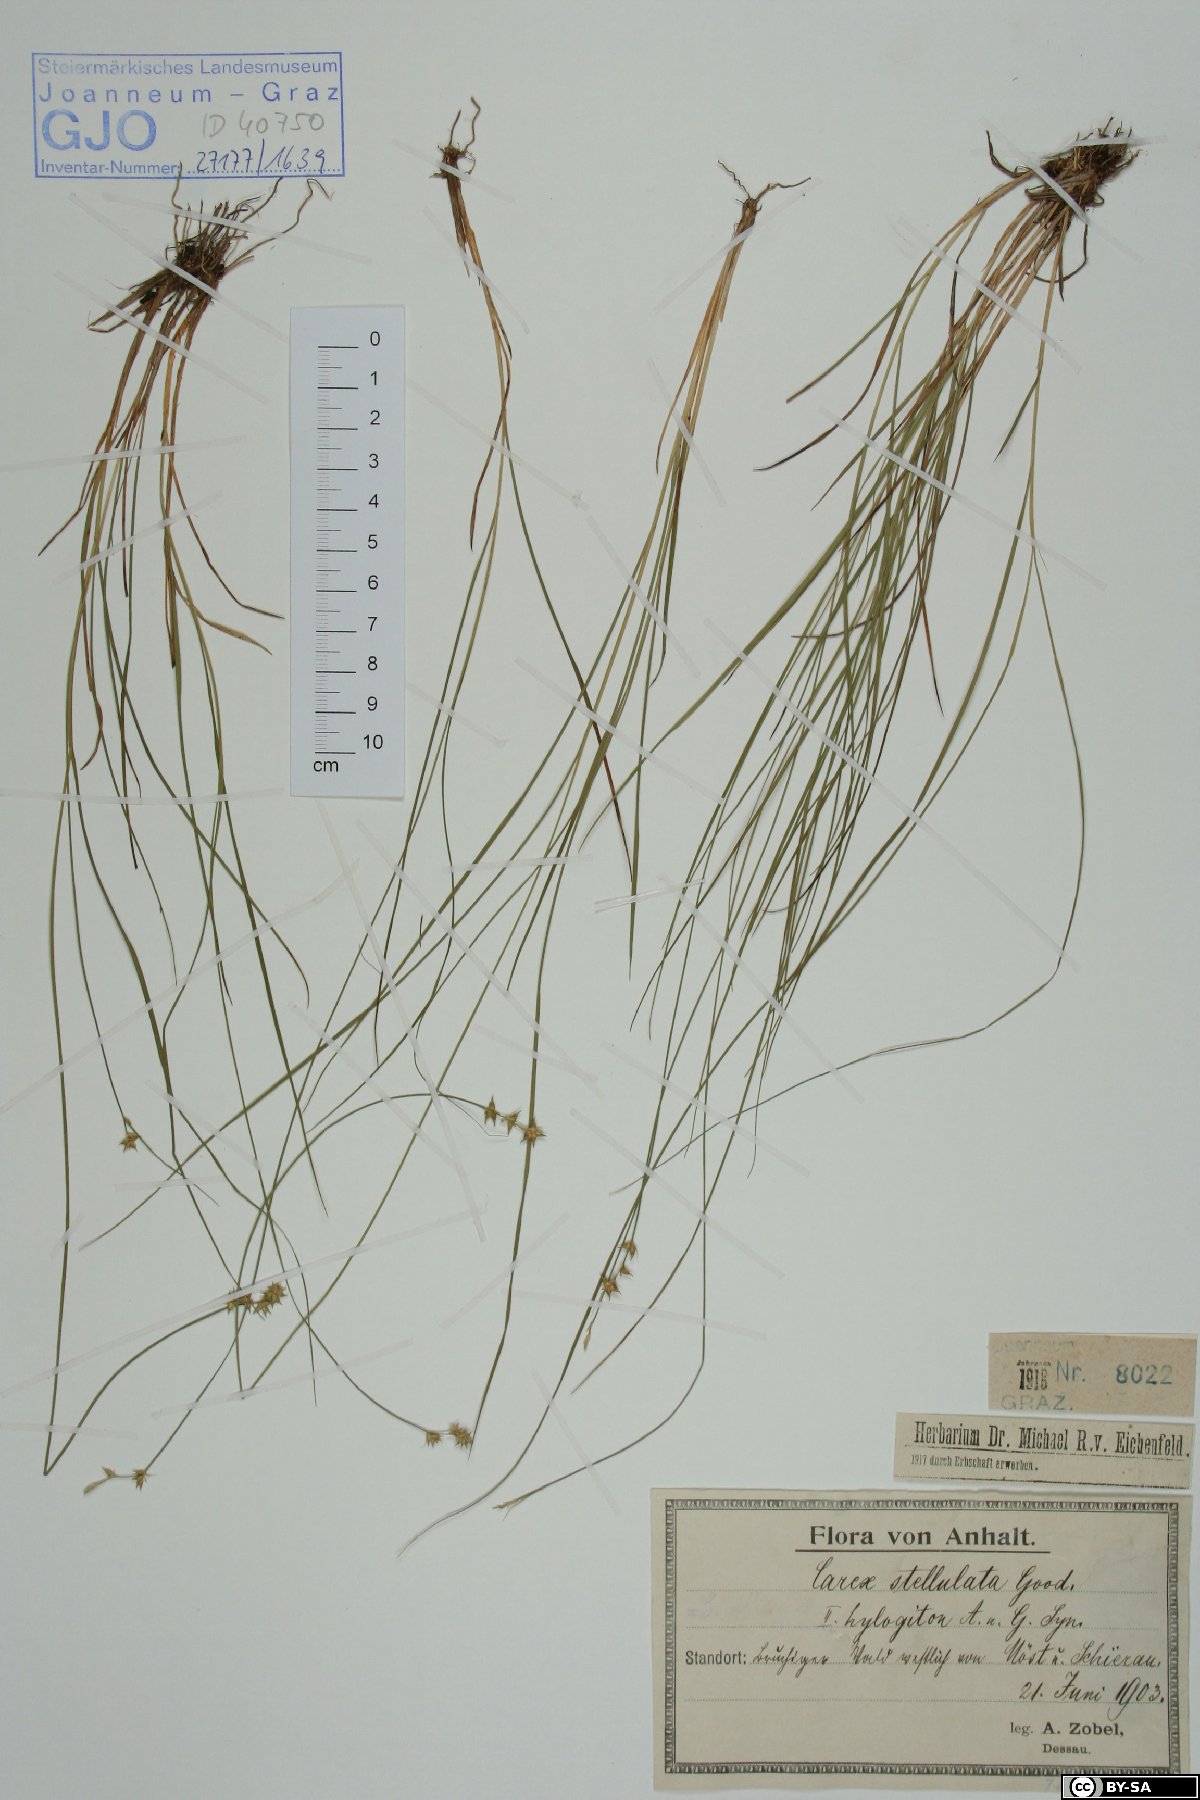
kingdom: Plantae
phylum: Tracheophyta
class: Liliopsida
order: Poales
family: Cyperaceae
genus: Carex
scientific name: Carex echinata
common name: Star sedge
